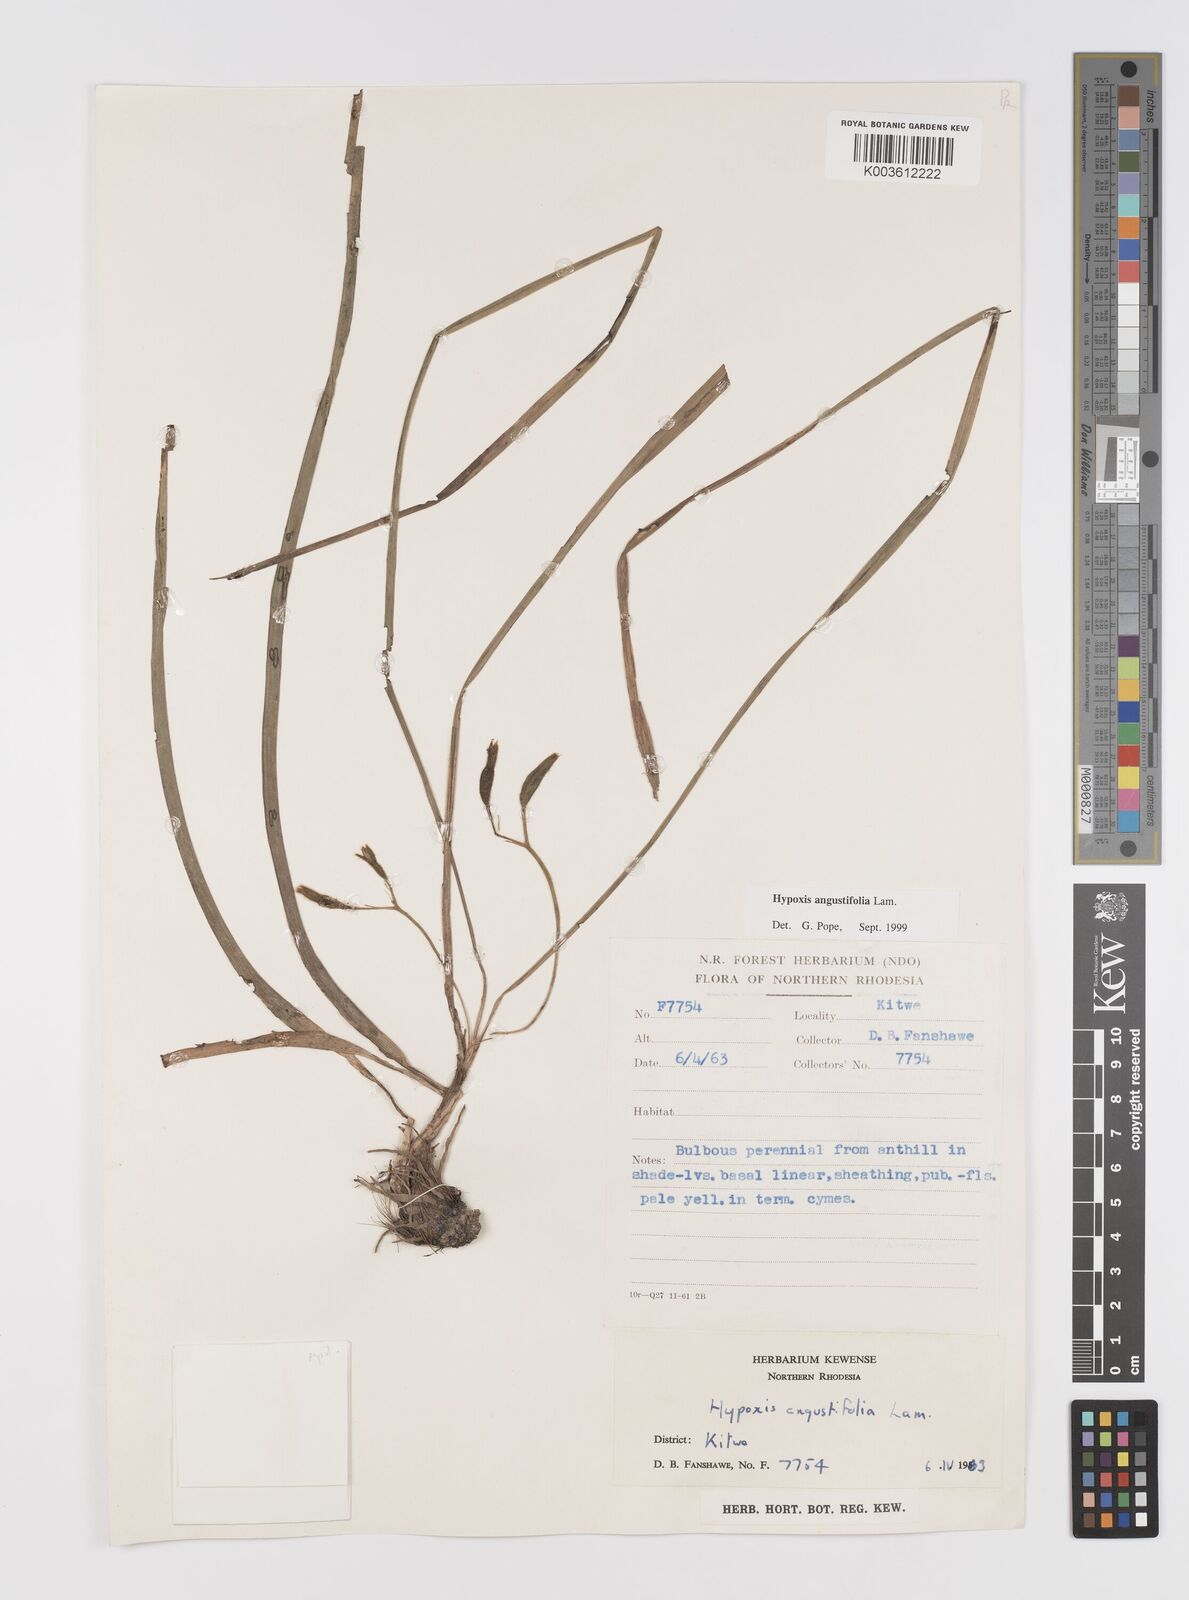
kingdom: Plantae
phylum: Tracheophyta
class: Liliopsida
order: Asparagales
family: Hypoxidaceae
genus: Hypoxis
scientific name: Hypoxis angustifolia
